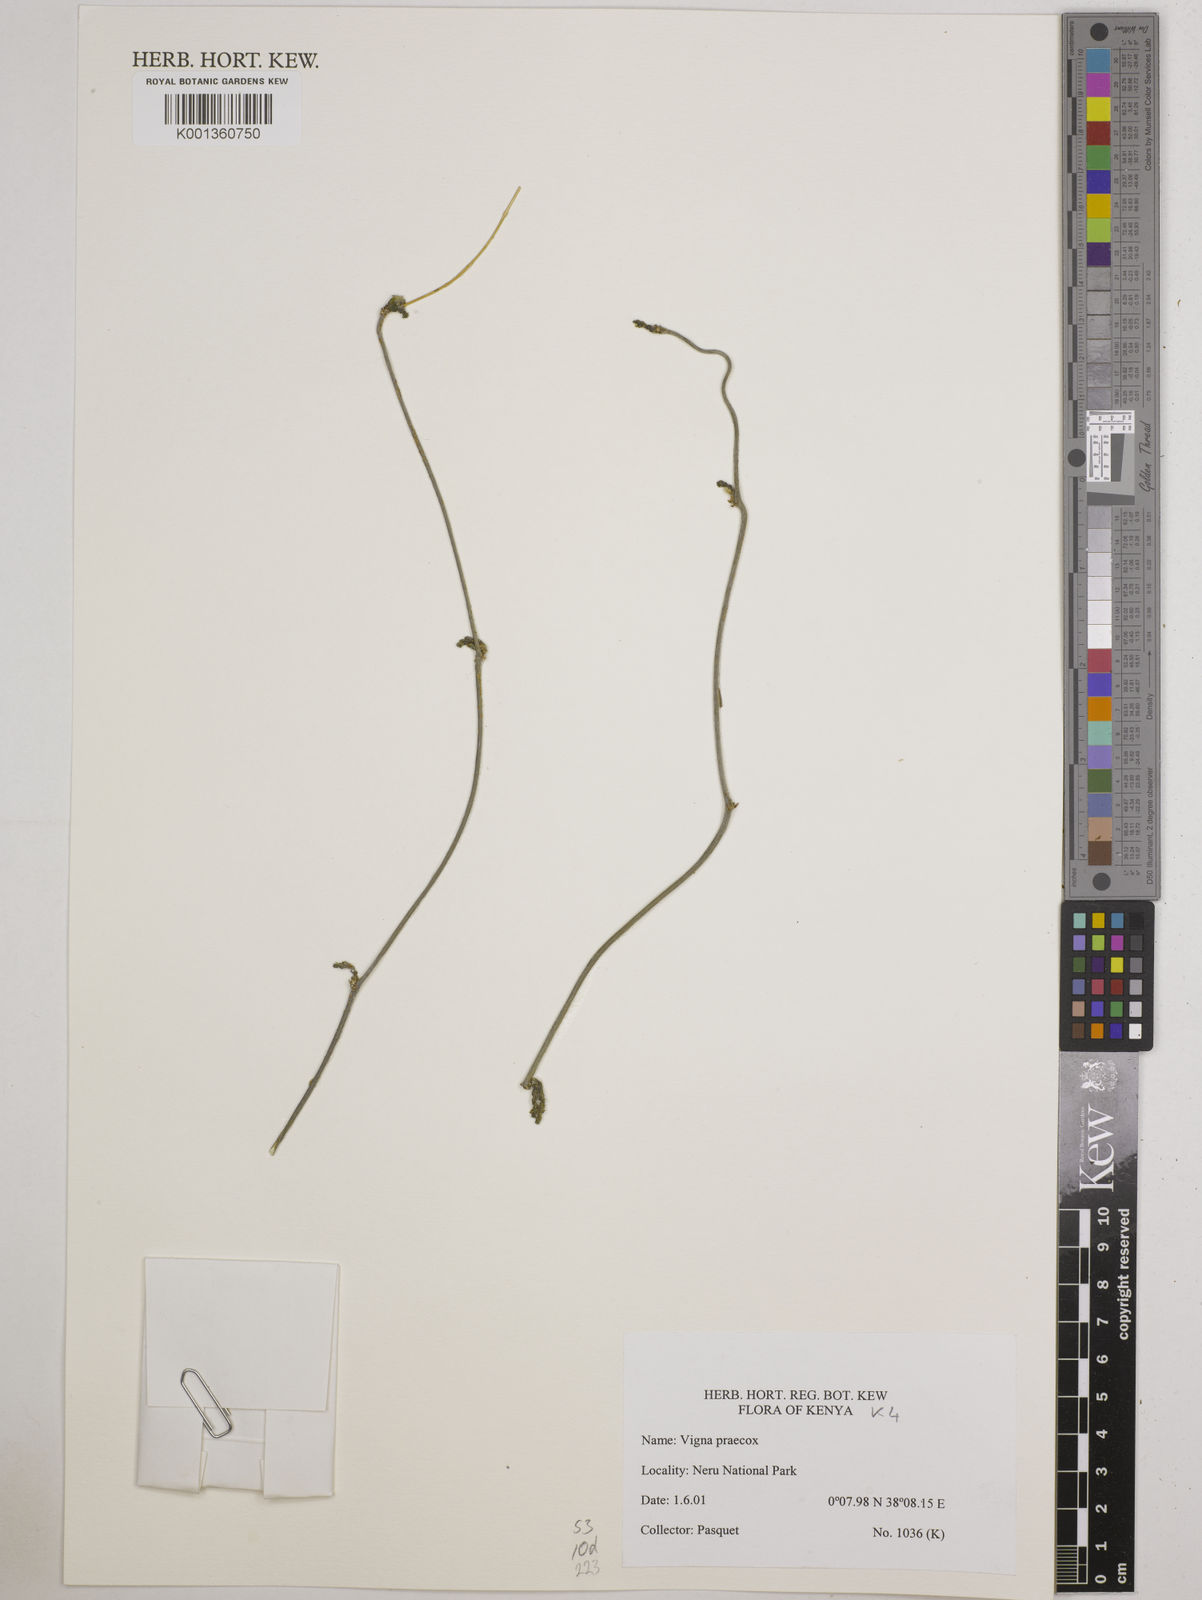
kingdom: Plantae
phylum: Tracheophyta
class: Magnoliopsida
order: Fabales
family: Fabaceae
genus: Wajira
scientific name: Wajira praecox
